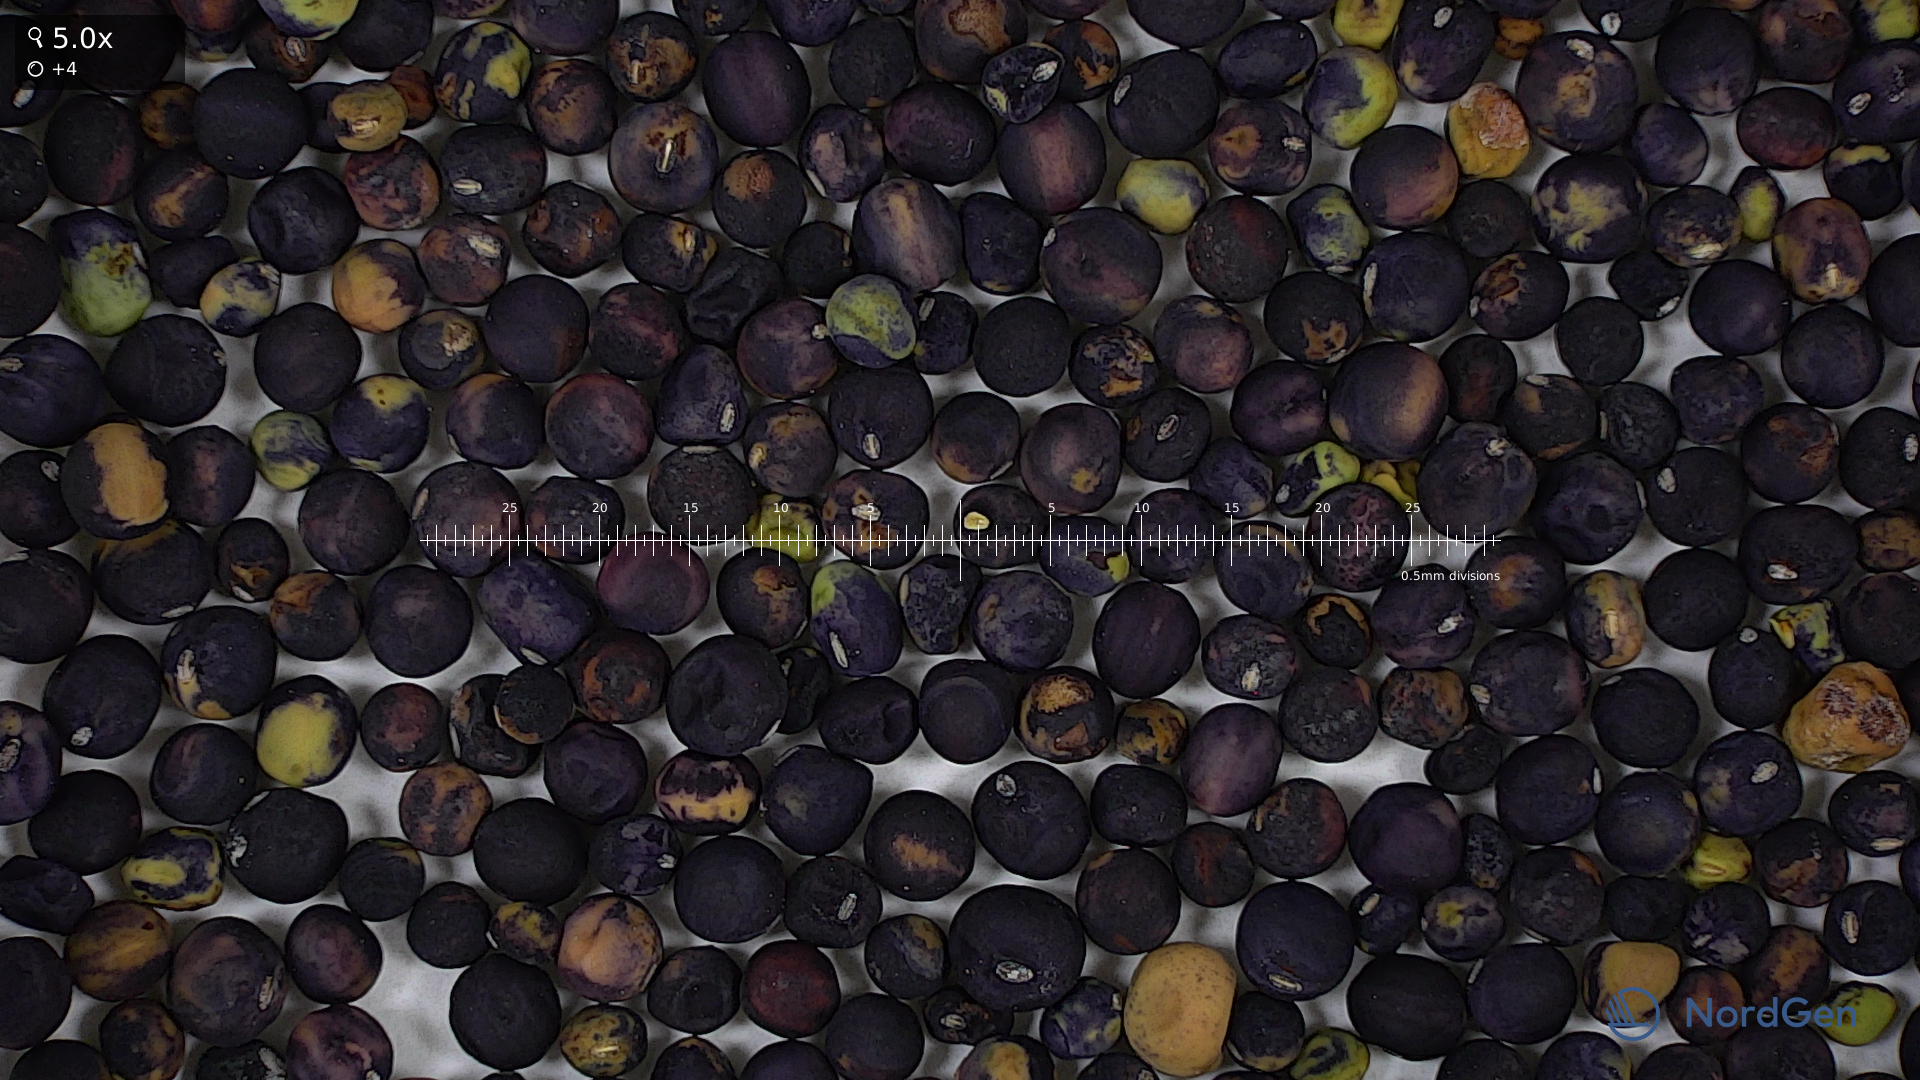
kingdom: Plantae
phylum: Tracheophyta
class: Magnoliopsida
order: Fabales
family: Fabaceae
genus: Lathyrus
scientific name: Lathyrus oleraceus
